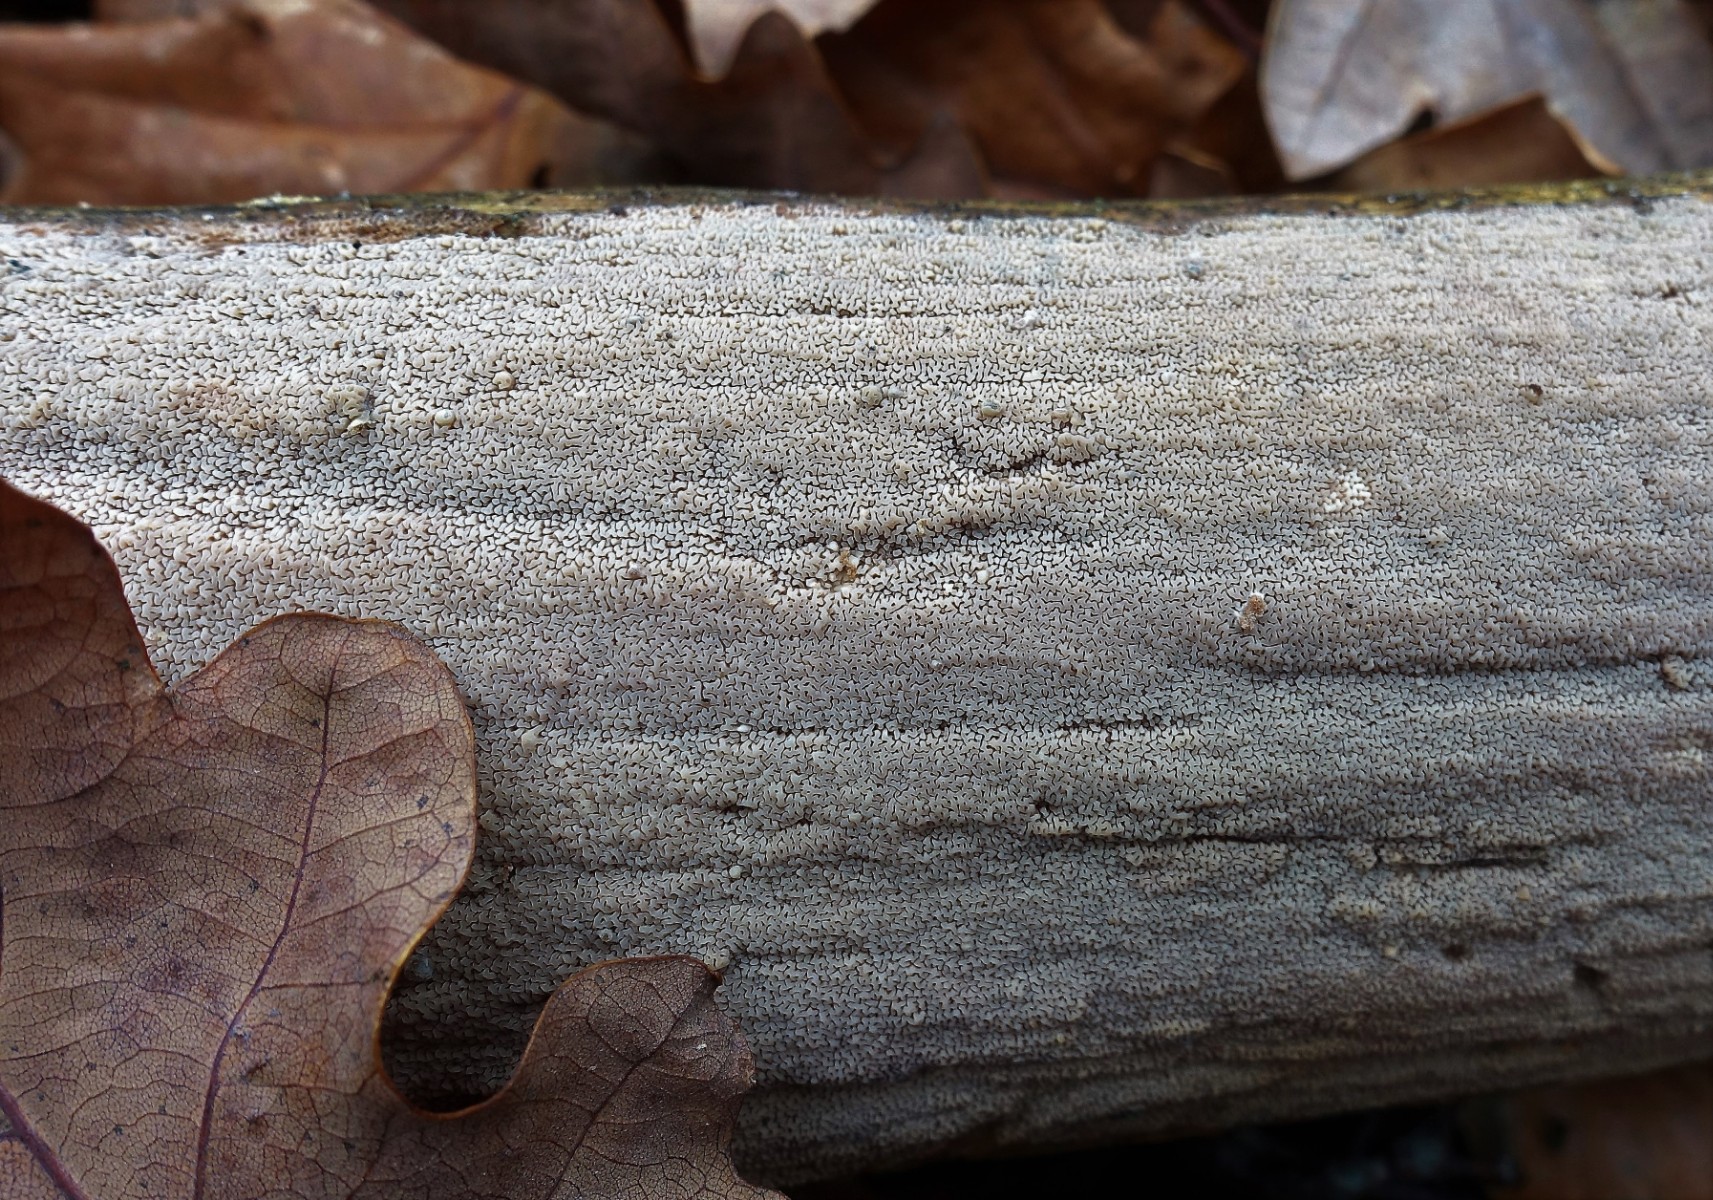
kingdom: Fungi
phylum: Basidiomycota
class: Agaricomycetes
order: Polyporales
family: Irpicaceae
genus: Crystallicutis
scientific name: Crystallicutis serpens
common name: gråviolet barkhinde
